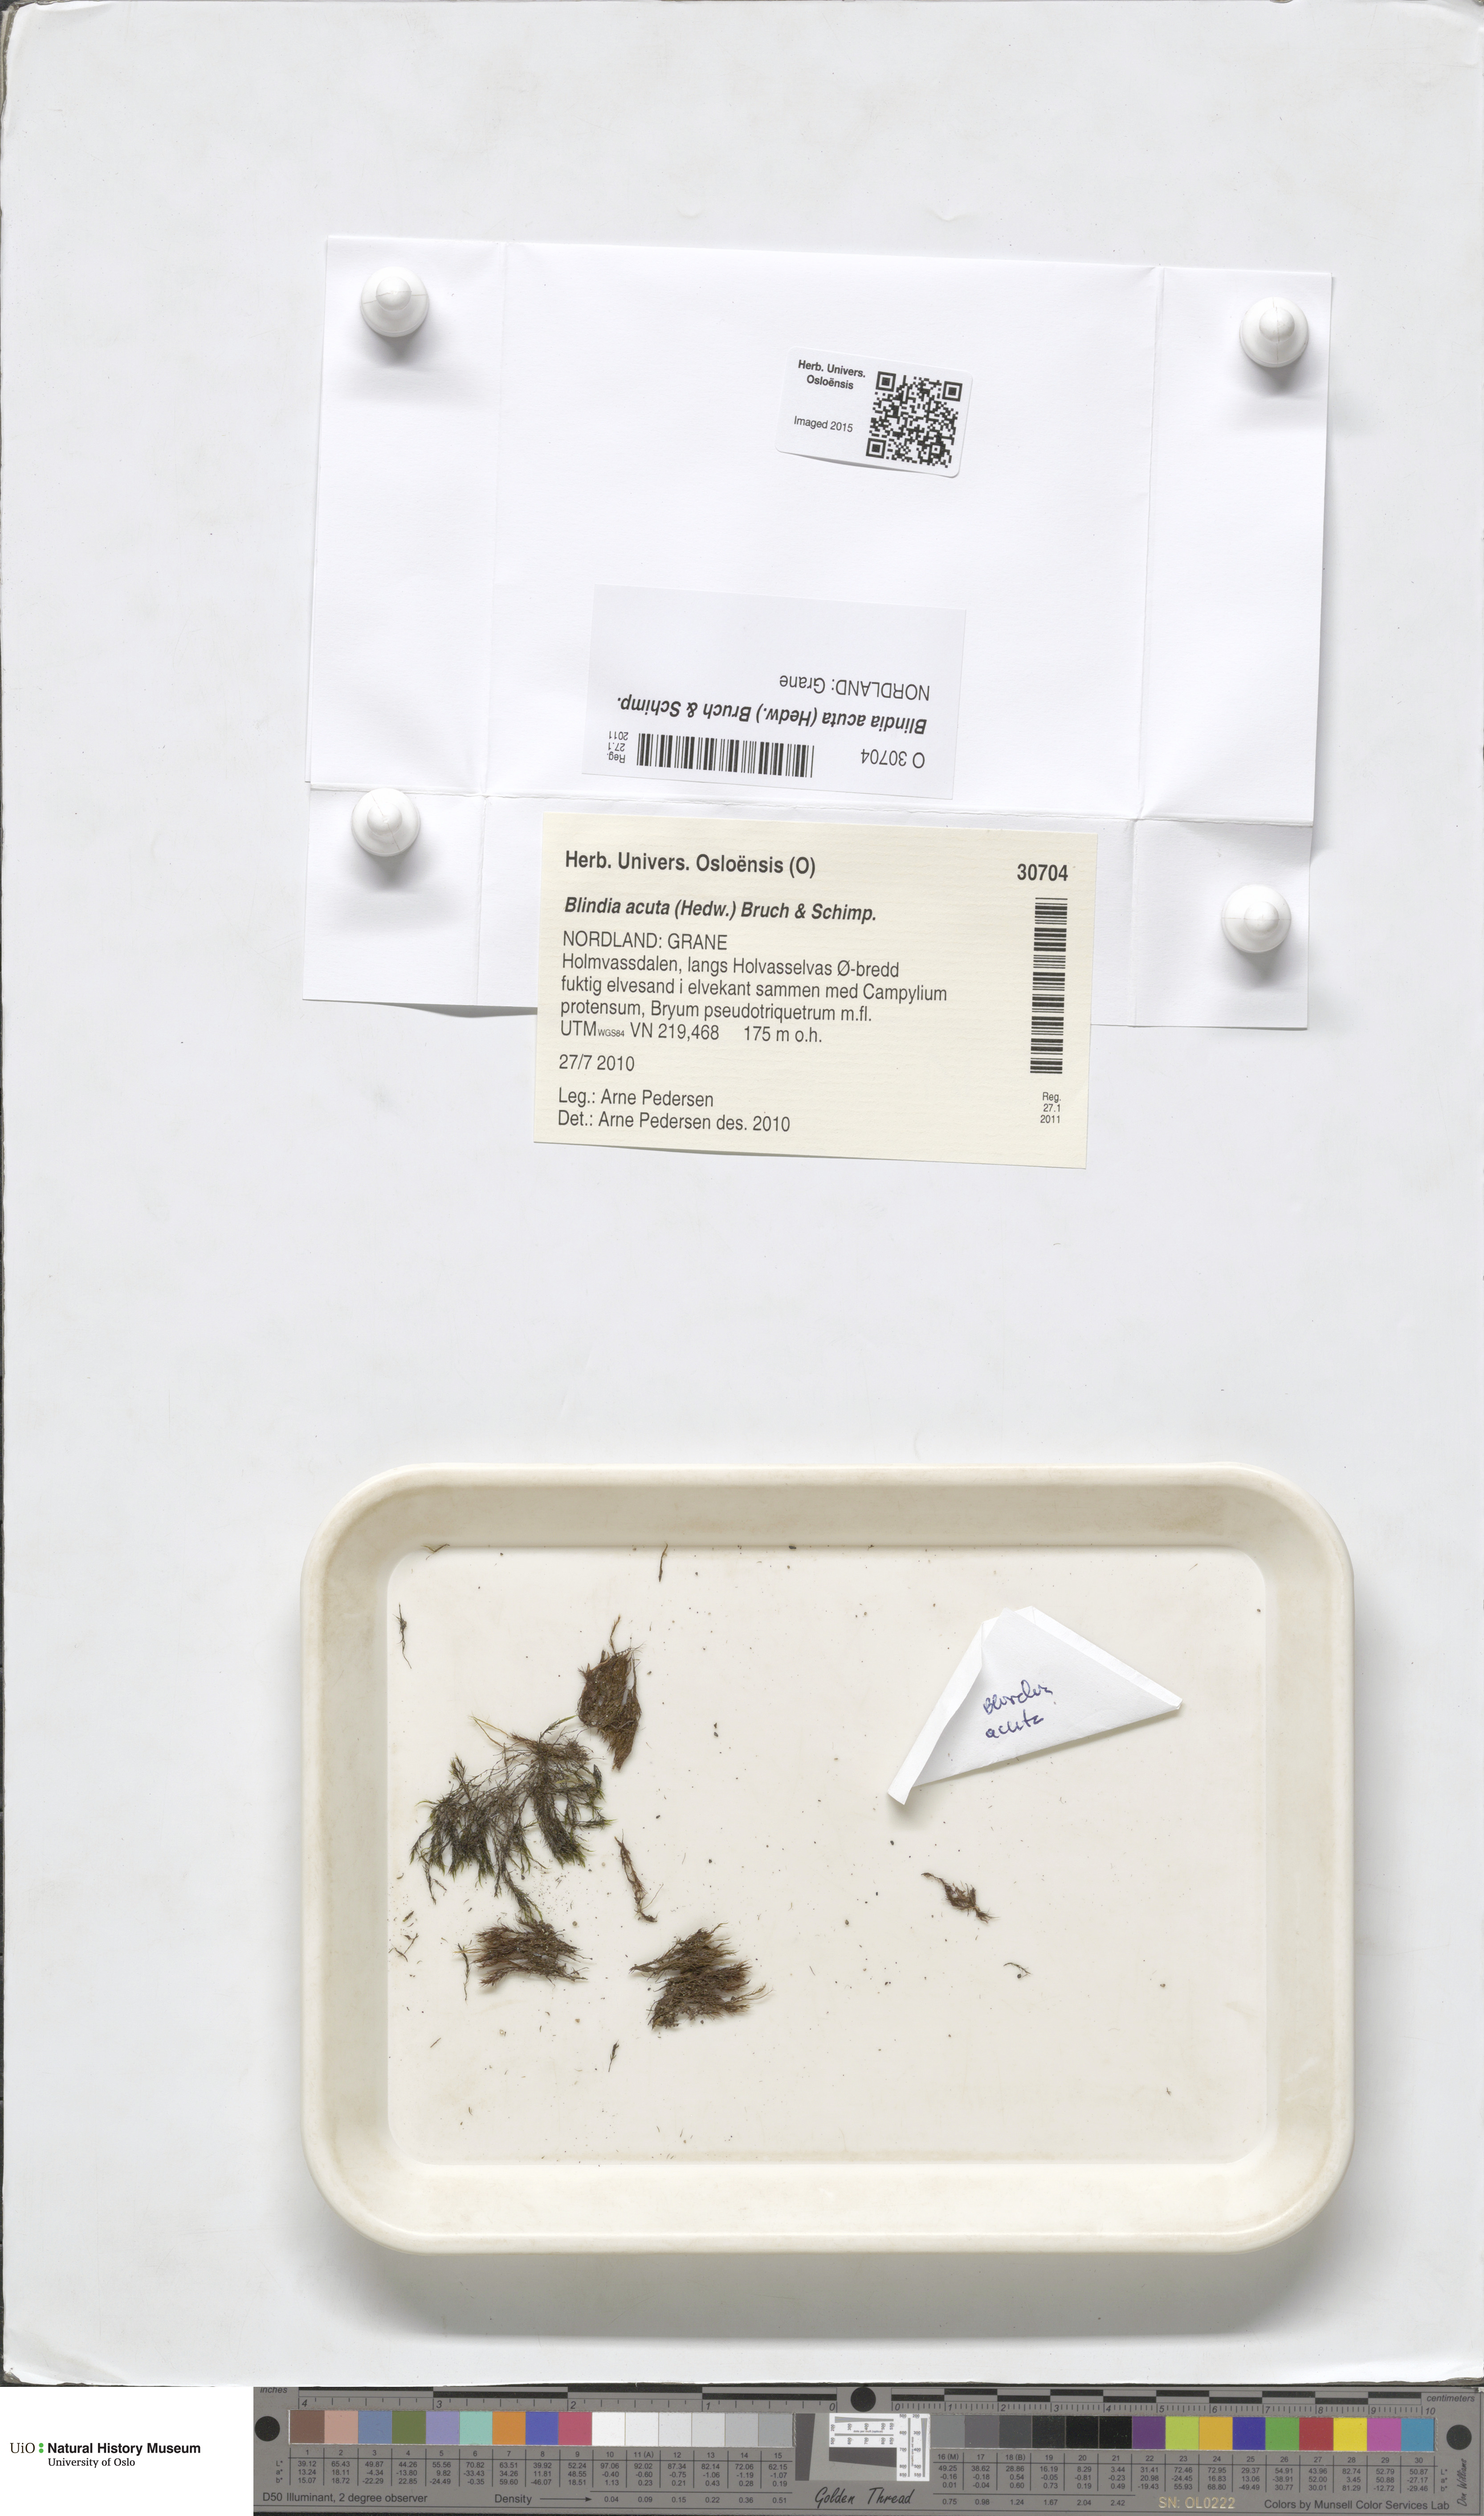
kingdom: Plantae
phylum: Bryophyta
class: Bryopsida
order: Grimmiales
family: Seligeriaceae
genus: Blindia
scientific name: Blindia acuta
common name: Sharp-leaved blind's moss
